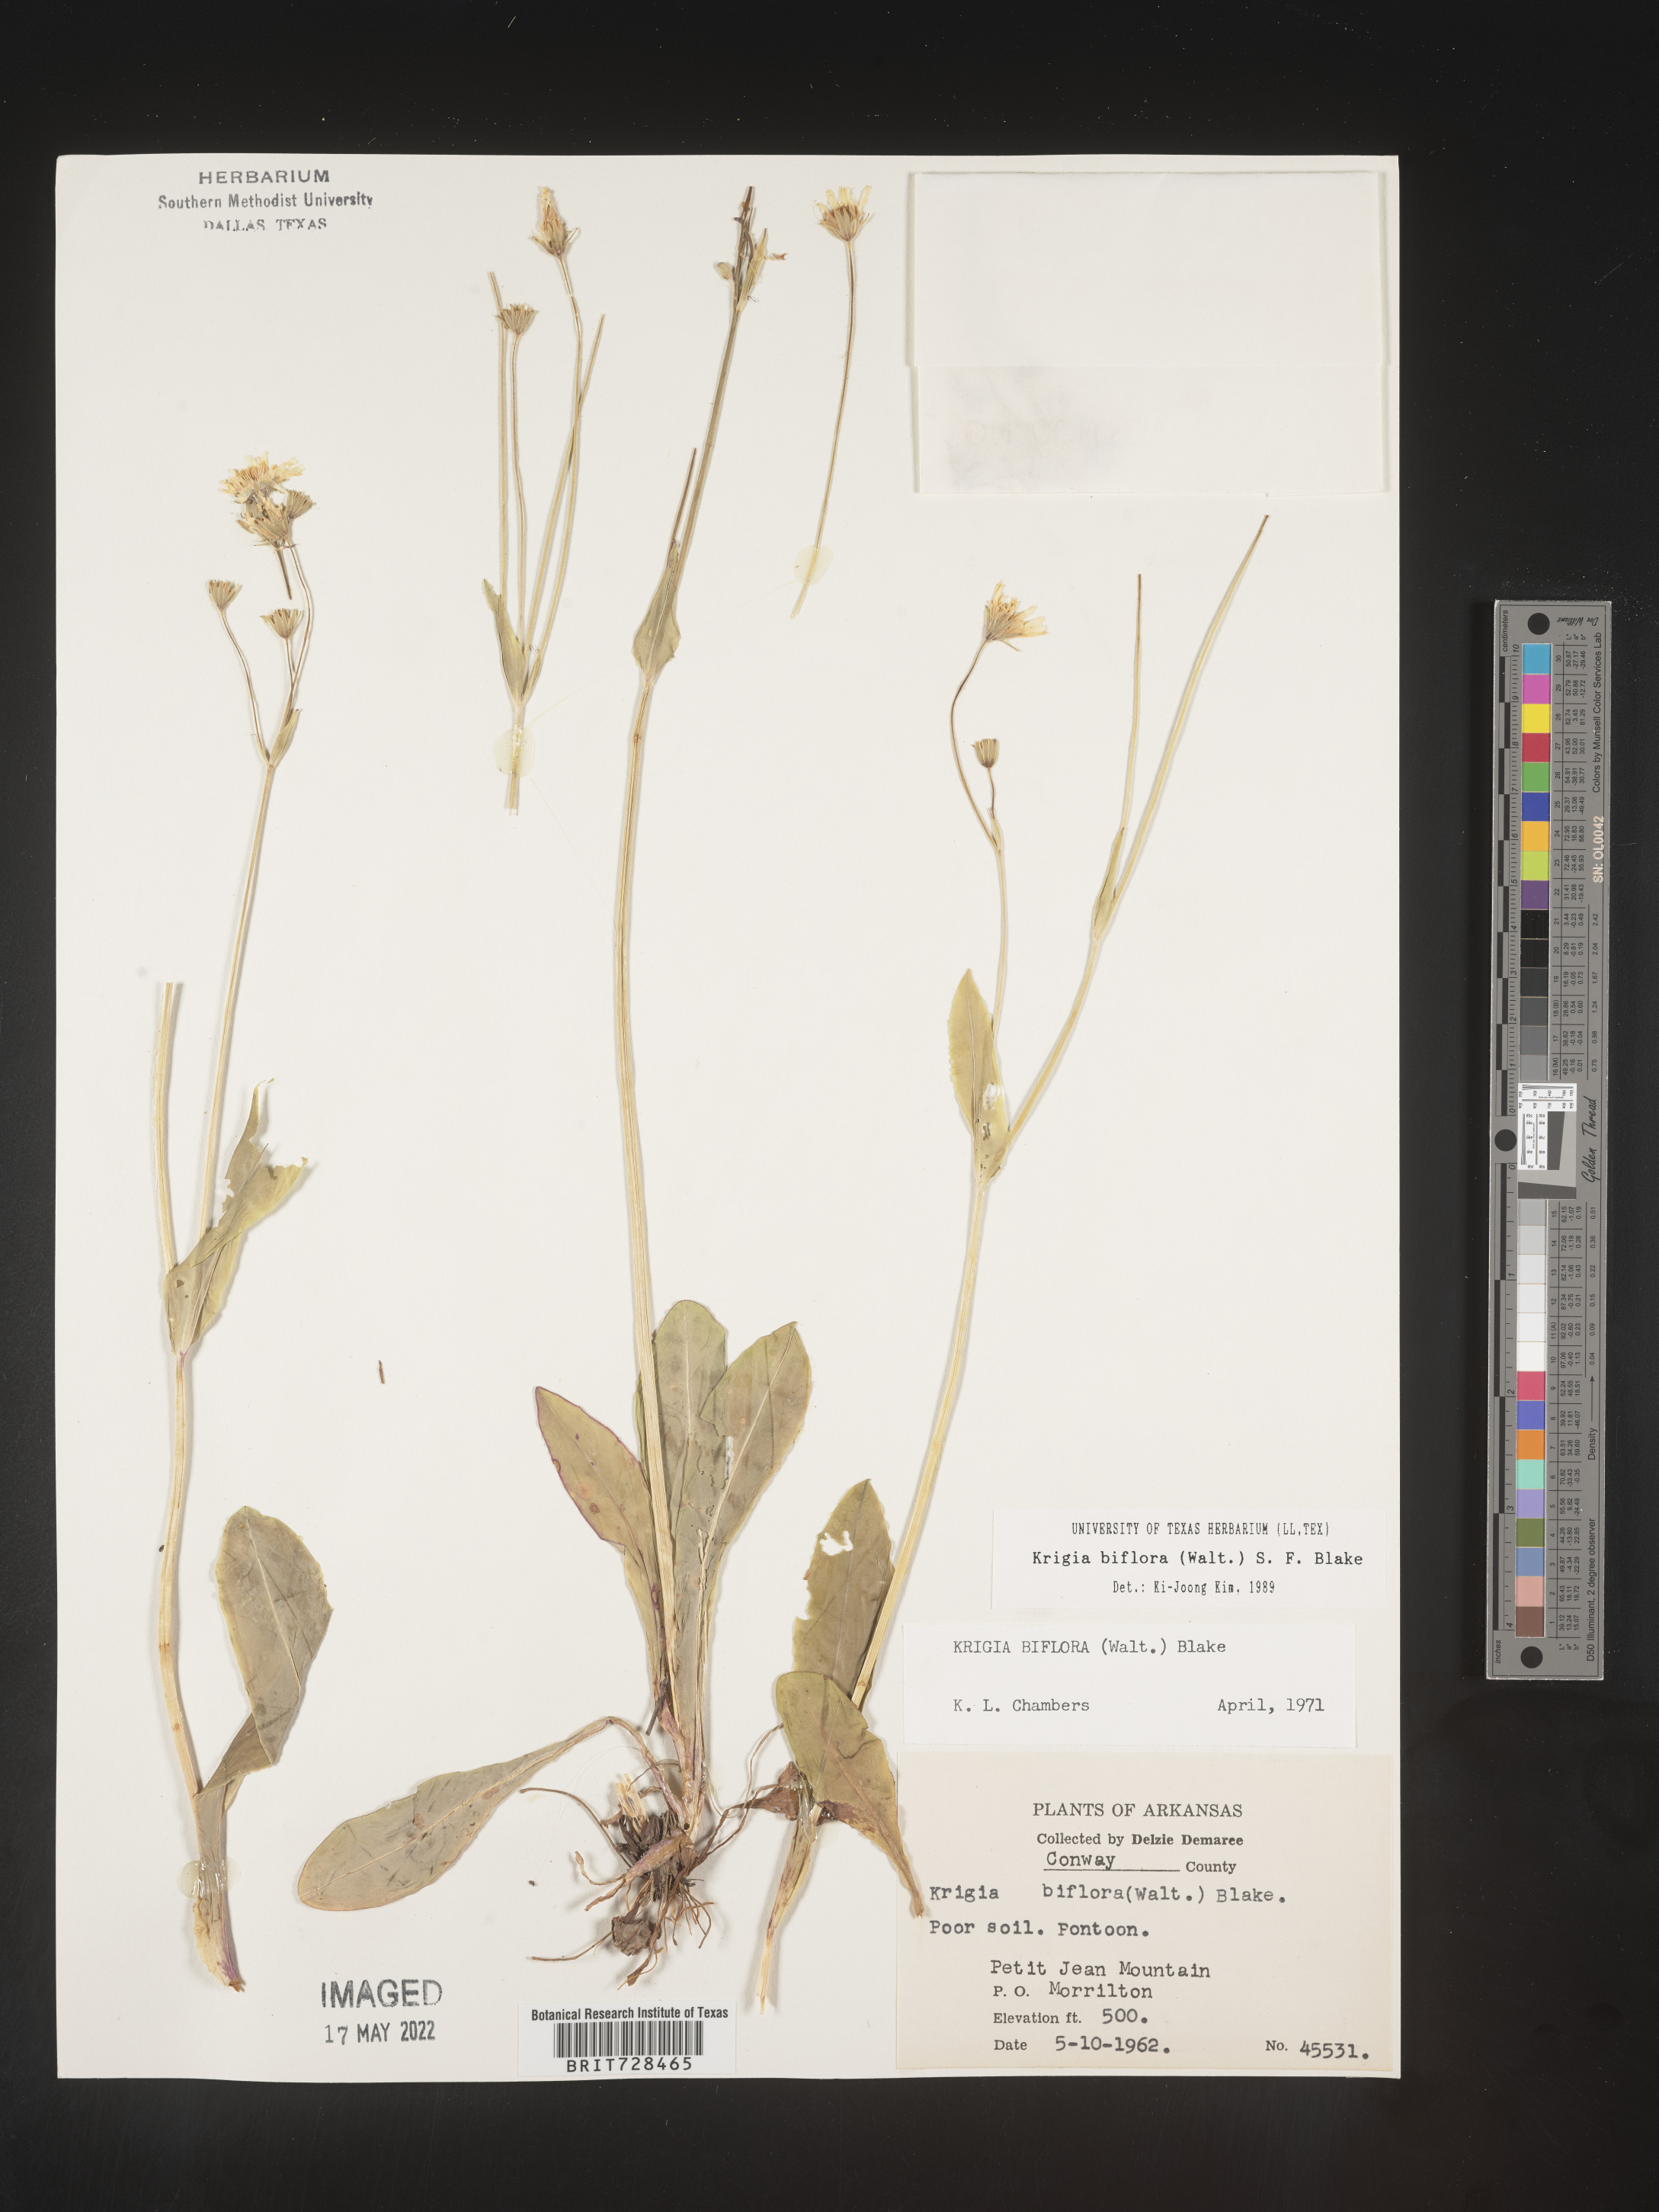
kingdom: Plantae
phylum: Tracheophyta
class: Magnoliopsida
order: Asterales
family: Asteraceae
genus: Krigia
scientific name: Krigia biflora
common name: Orange dwarf-dandelion
